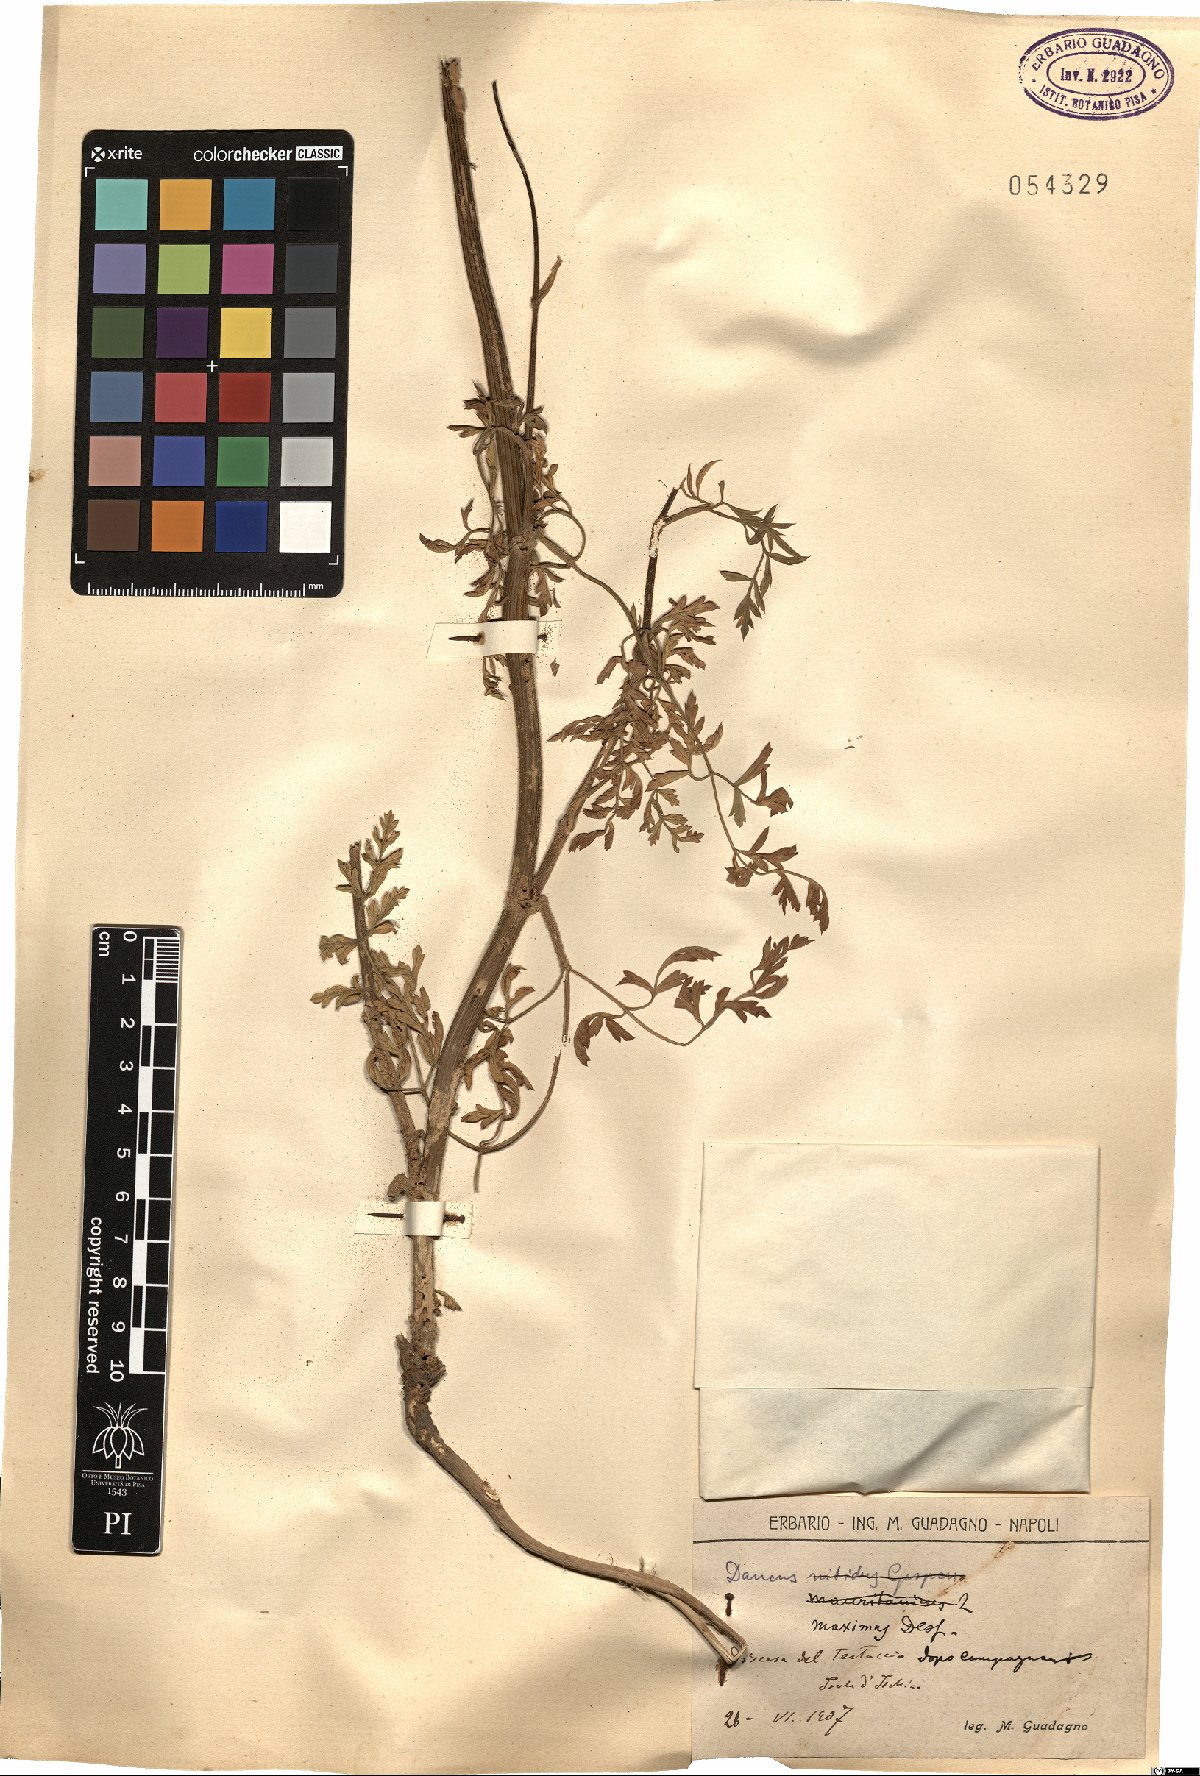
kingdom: Plantae
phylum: Tracheophyta
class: Magnoliopsida
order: Apiales
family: Apiaceae
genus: Daucus
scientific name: Daucus carota
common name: Wild carrot
